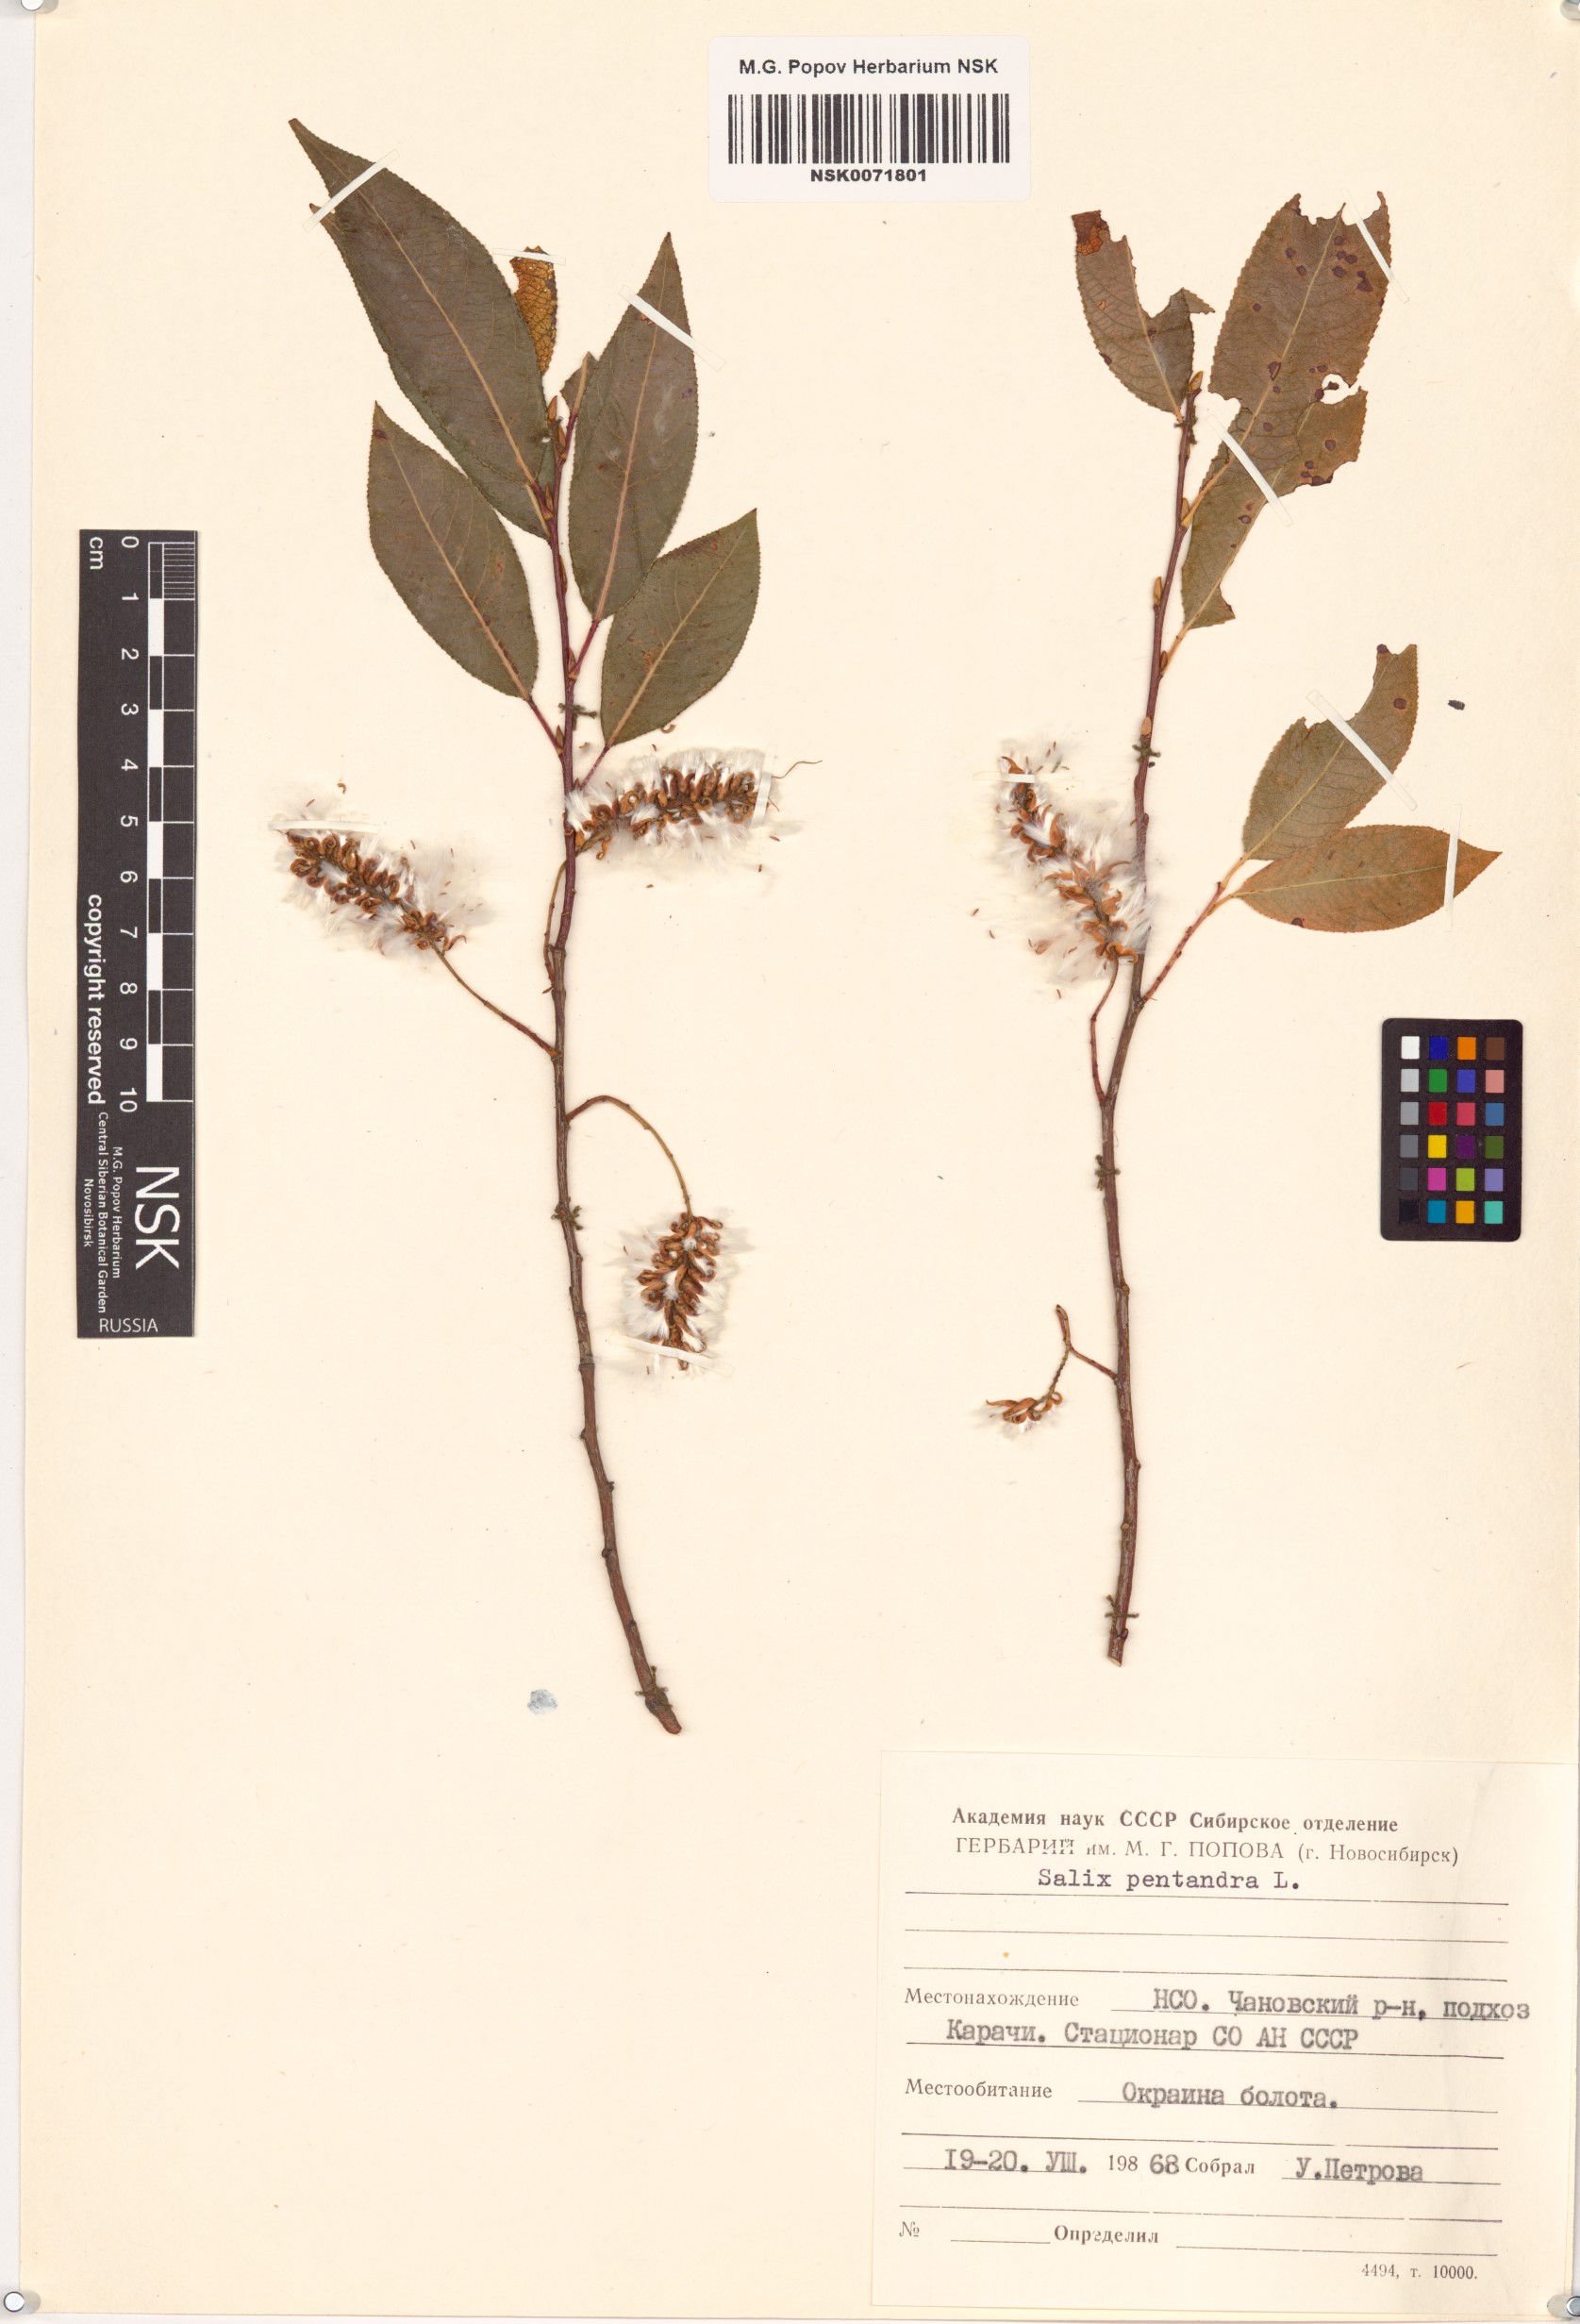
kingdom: Plantae
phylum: Tracheophyta
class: Magnoliopsida
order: Malpighiales
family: Salicaceae
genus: Salix
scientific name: Salix pentandra
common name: Bay willow
